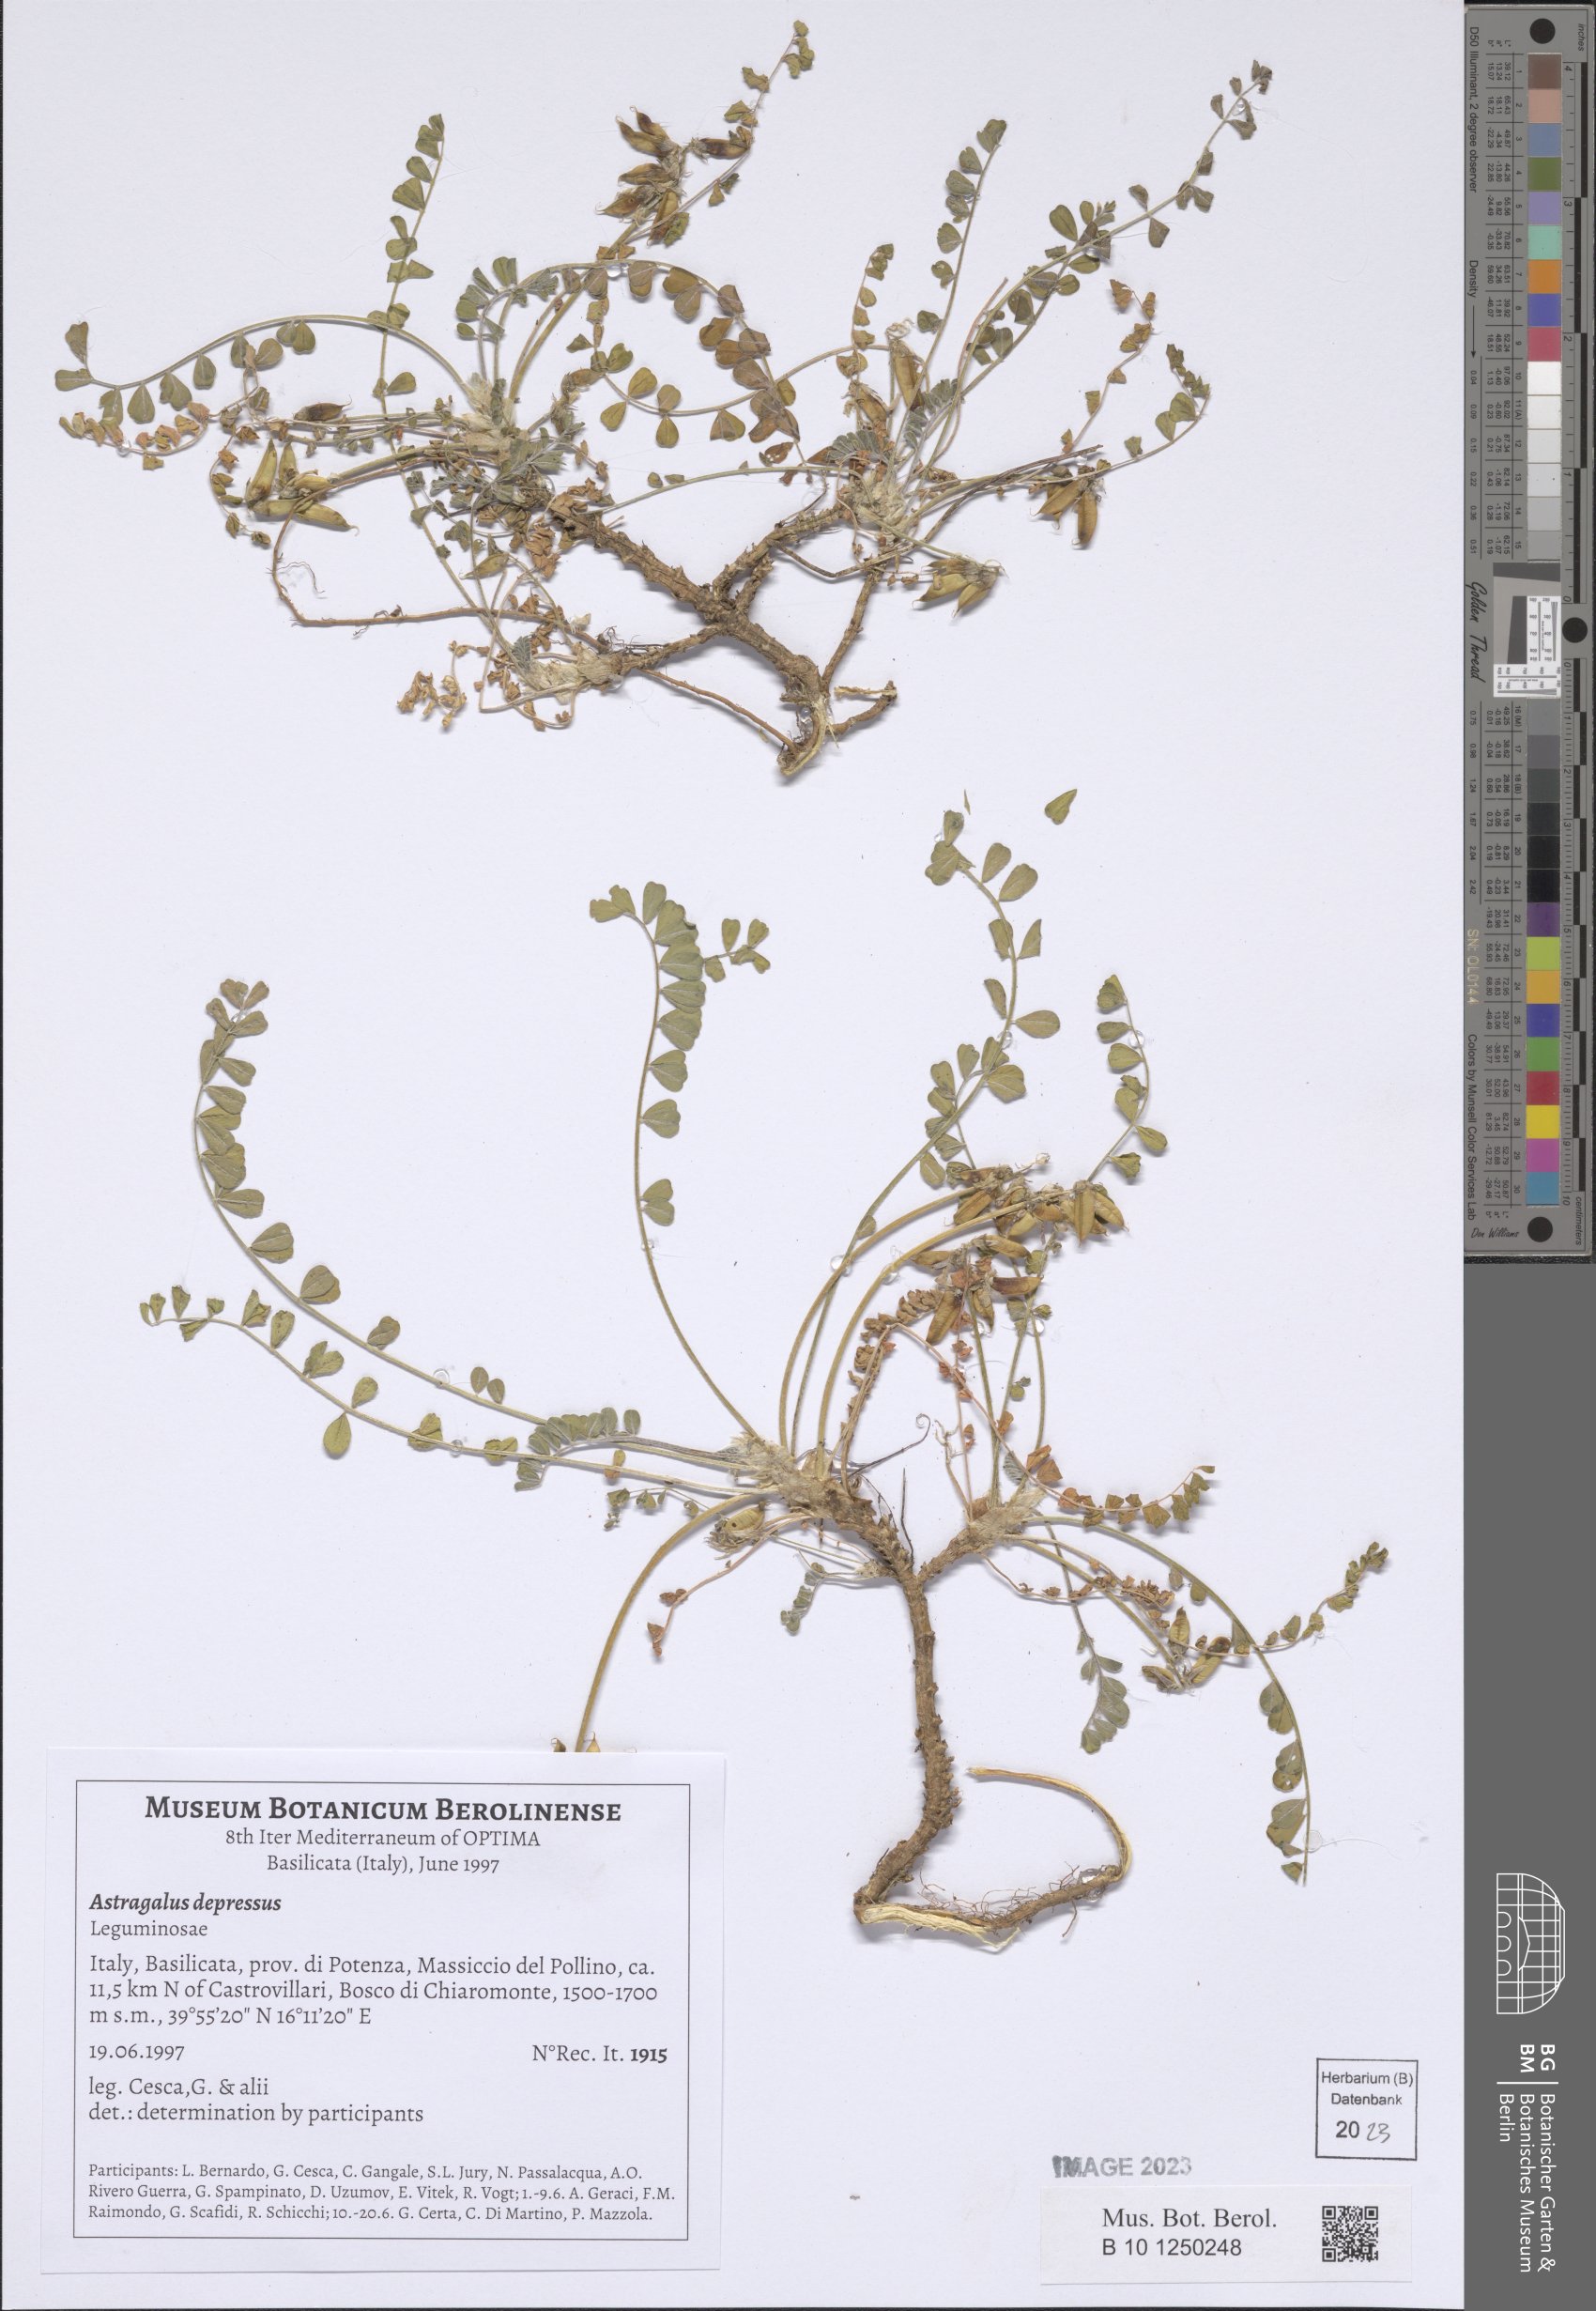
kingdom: Plantae
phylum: Tracheophyta
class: Magnoliopsida
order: Fabales
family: Fabaceae
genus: Astragalus
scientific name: Astragalus depressus
